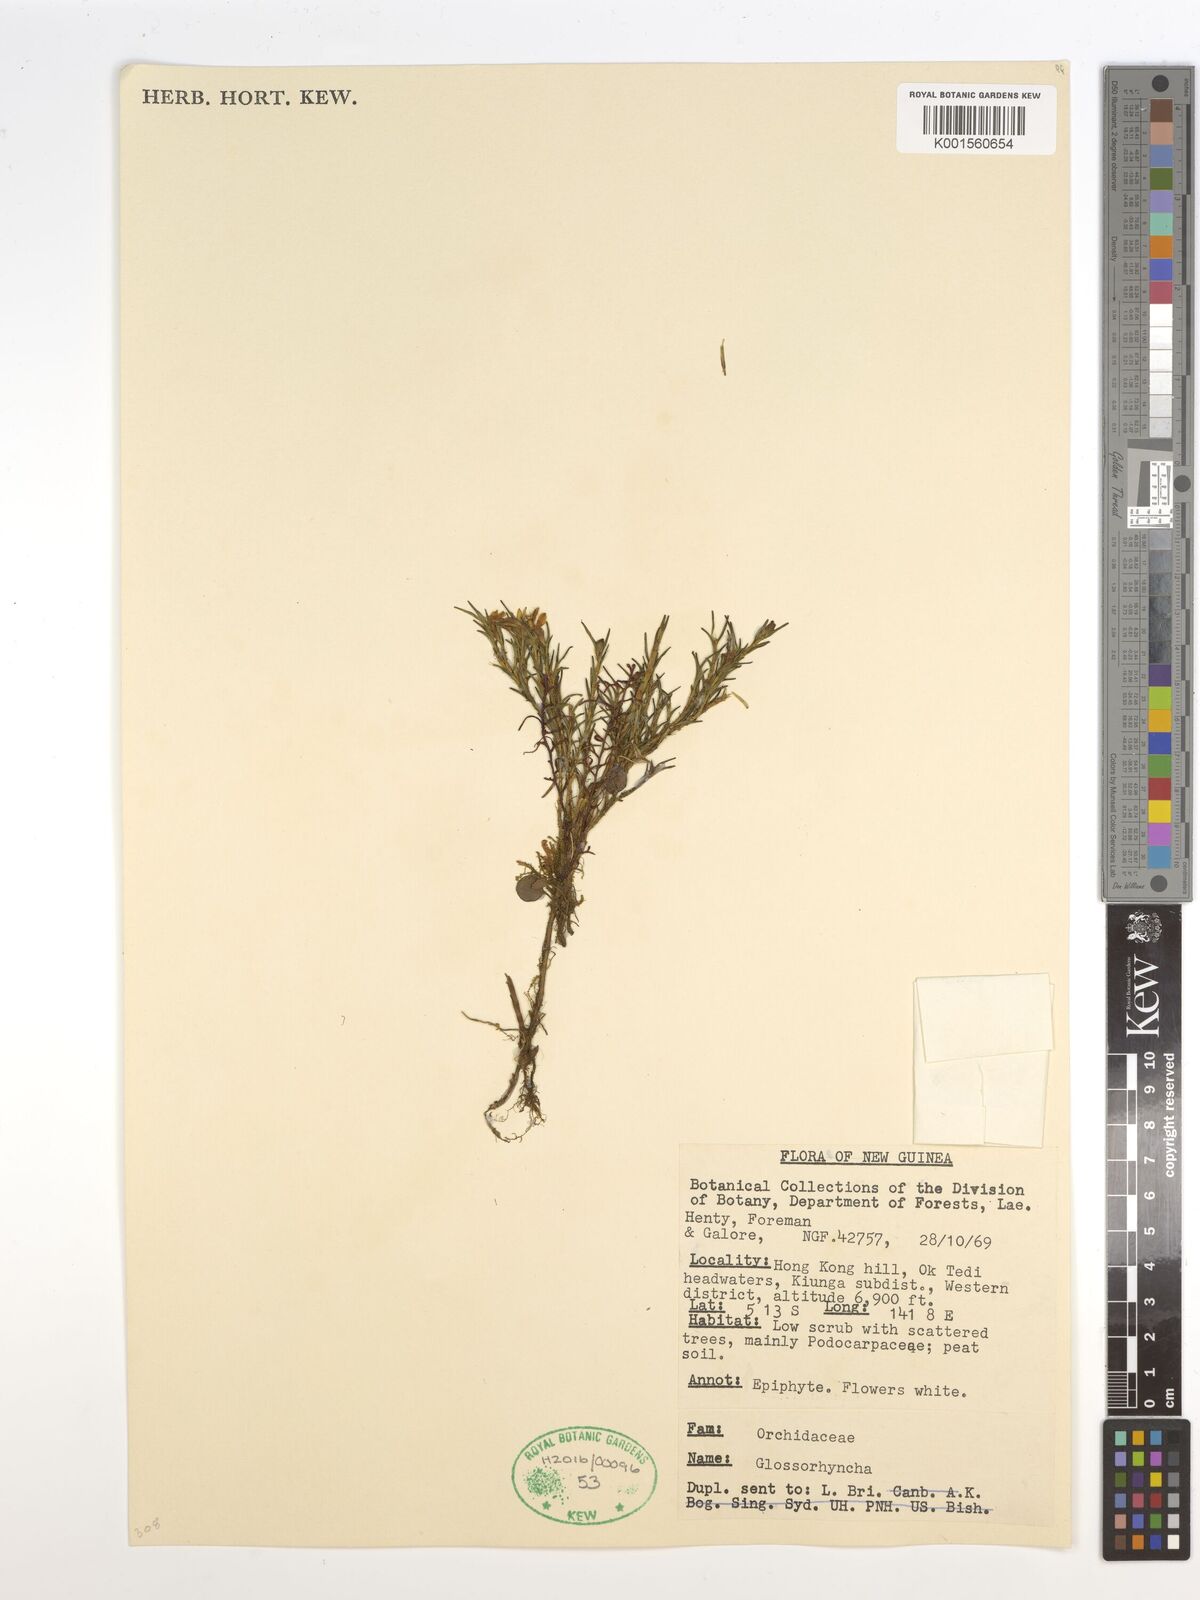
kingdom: Plantae
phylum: Tracheophyta
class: Liliopsida
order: Asparagales
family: Orchidaceae
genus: Glomera
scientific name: Glomera
